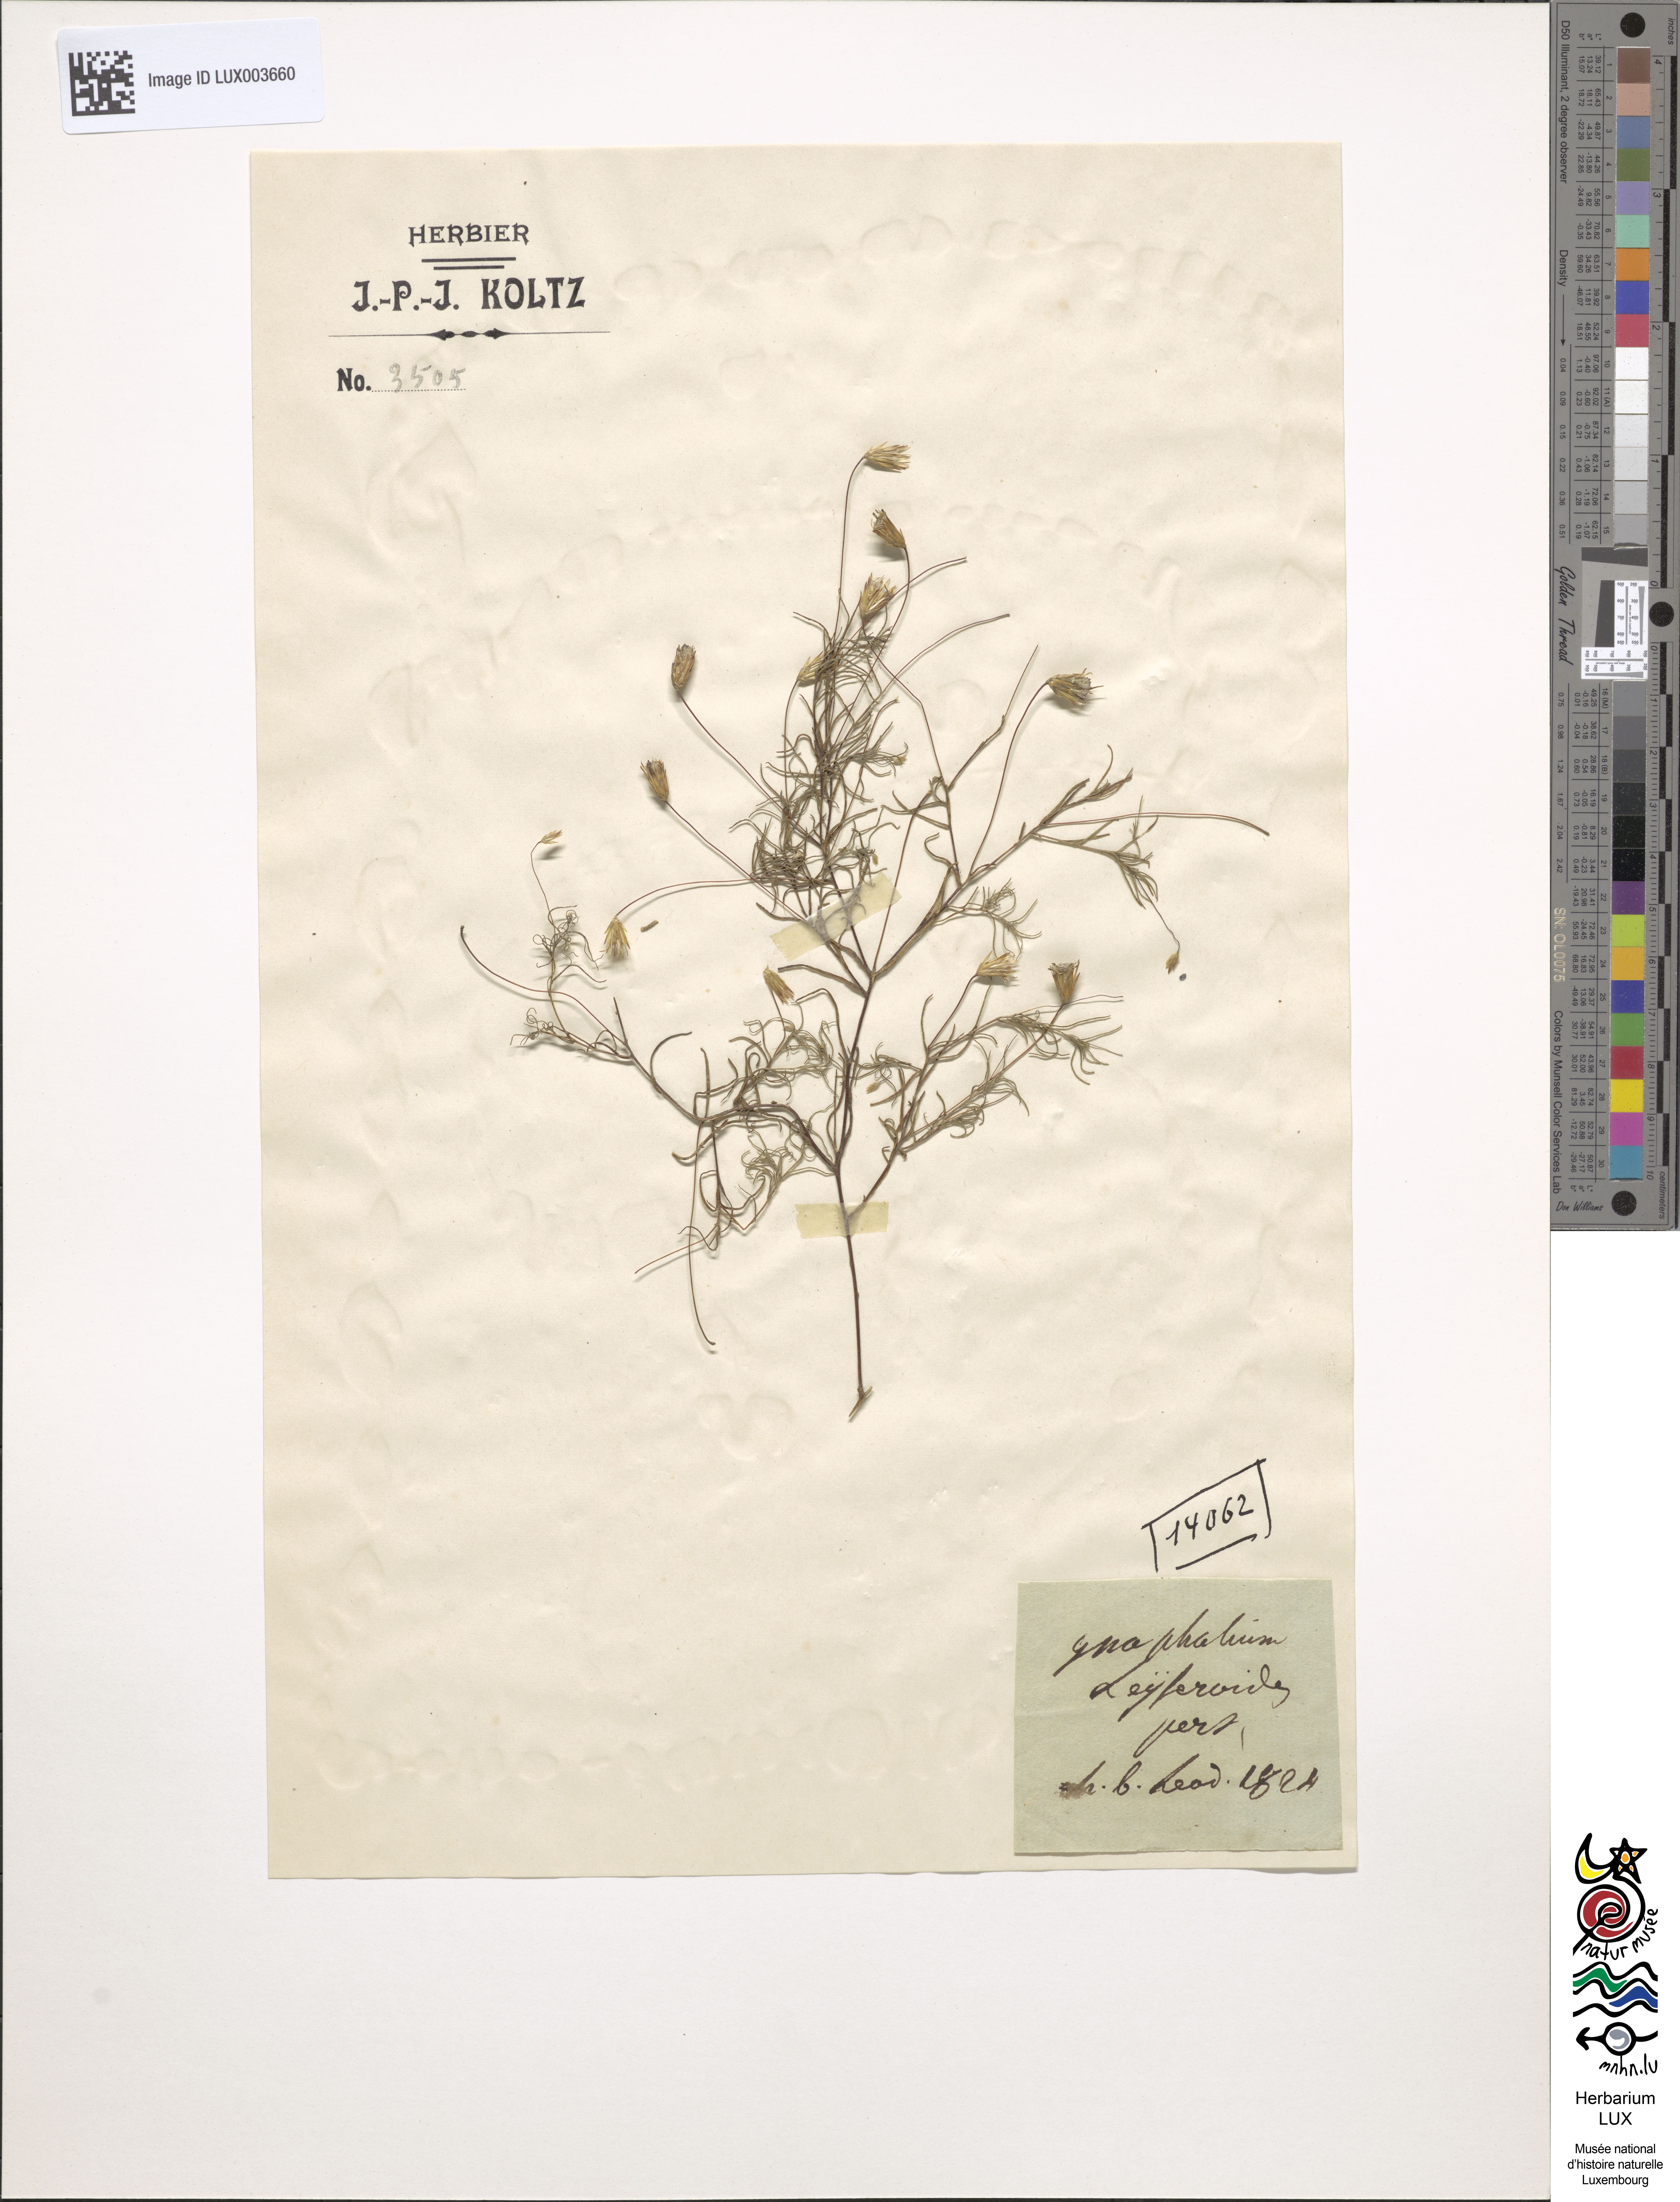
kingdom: Plantae
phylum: Tracheophyta
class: Magnoliopsida
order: Asterales
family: Asteraceae
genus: Gnaphalium
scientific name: Gnaphalium
